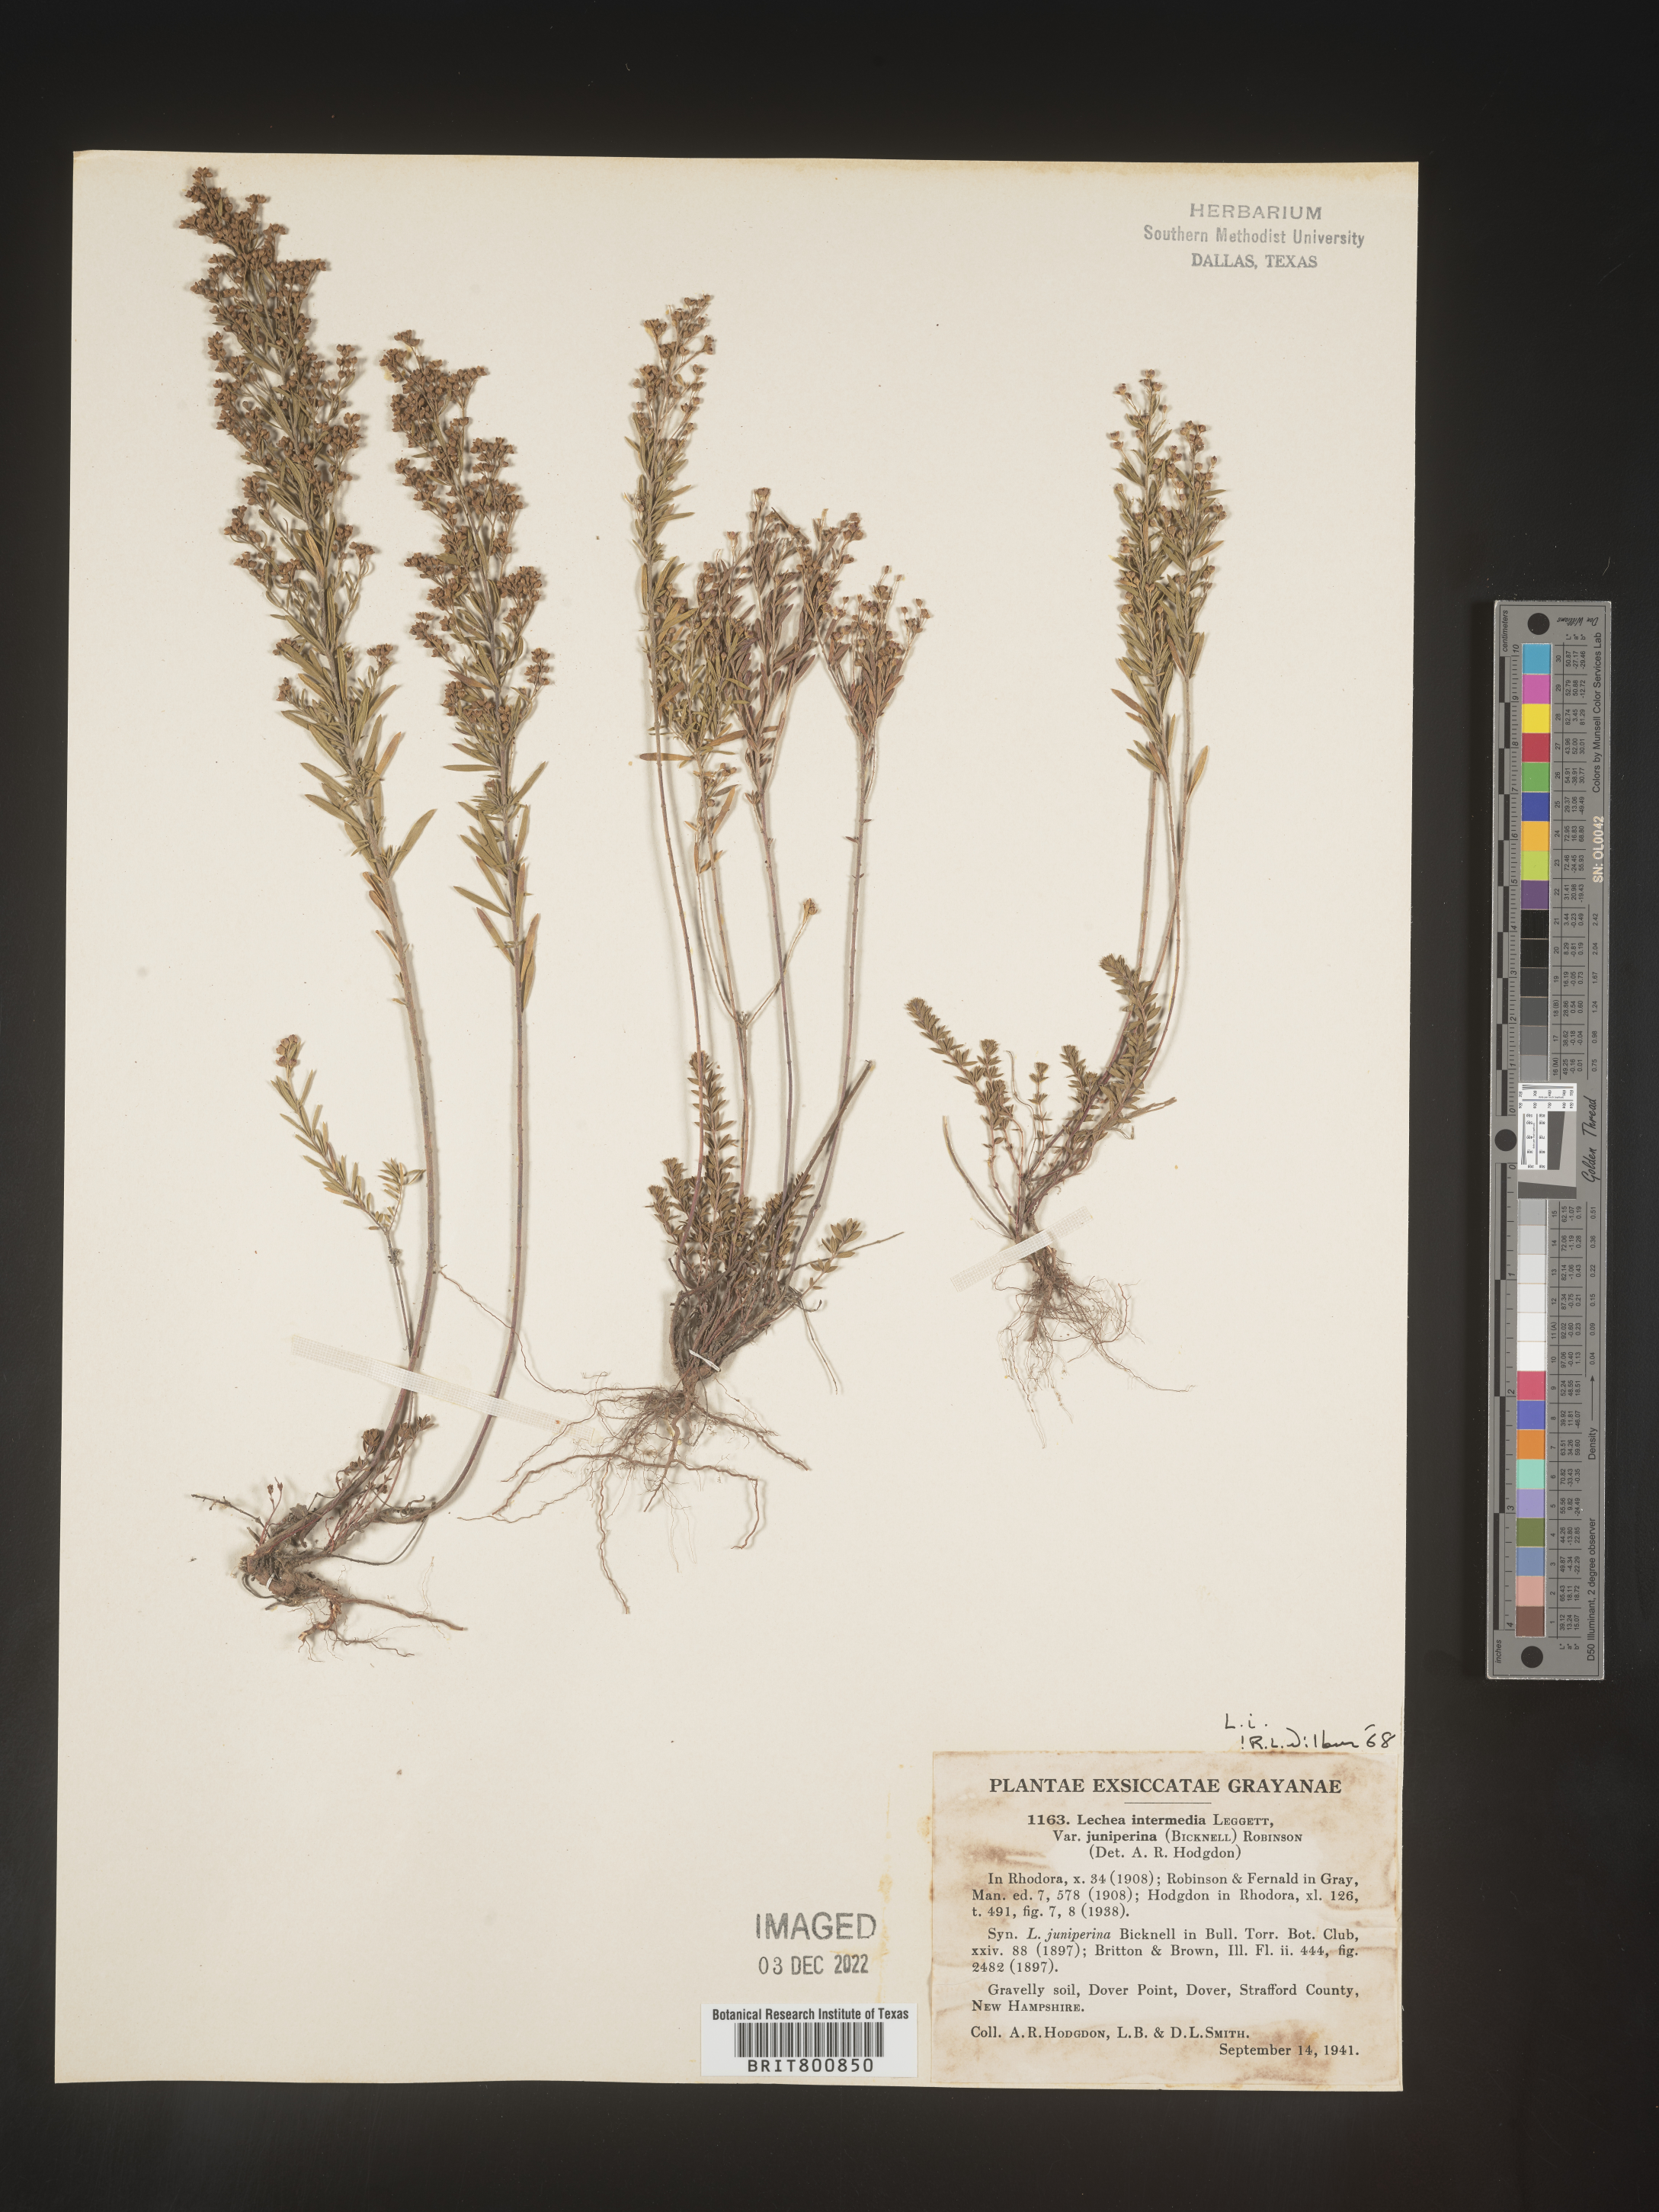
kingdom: Plantae
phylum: Tracheophyta
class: Magnoliopsida
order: Malvales
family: Cistaceae
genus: Lechea
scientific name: Lechea intermedia
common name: Intermediate pinweed
